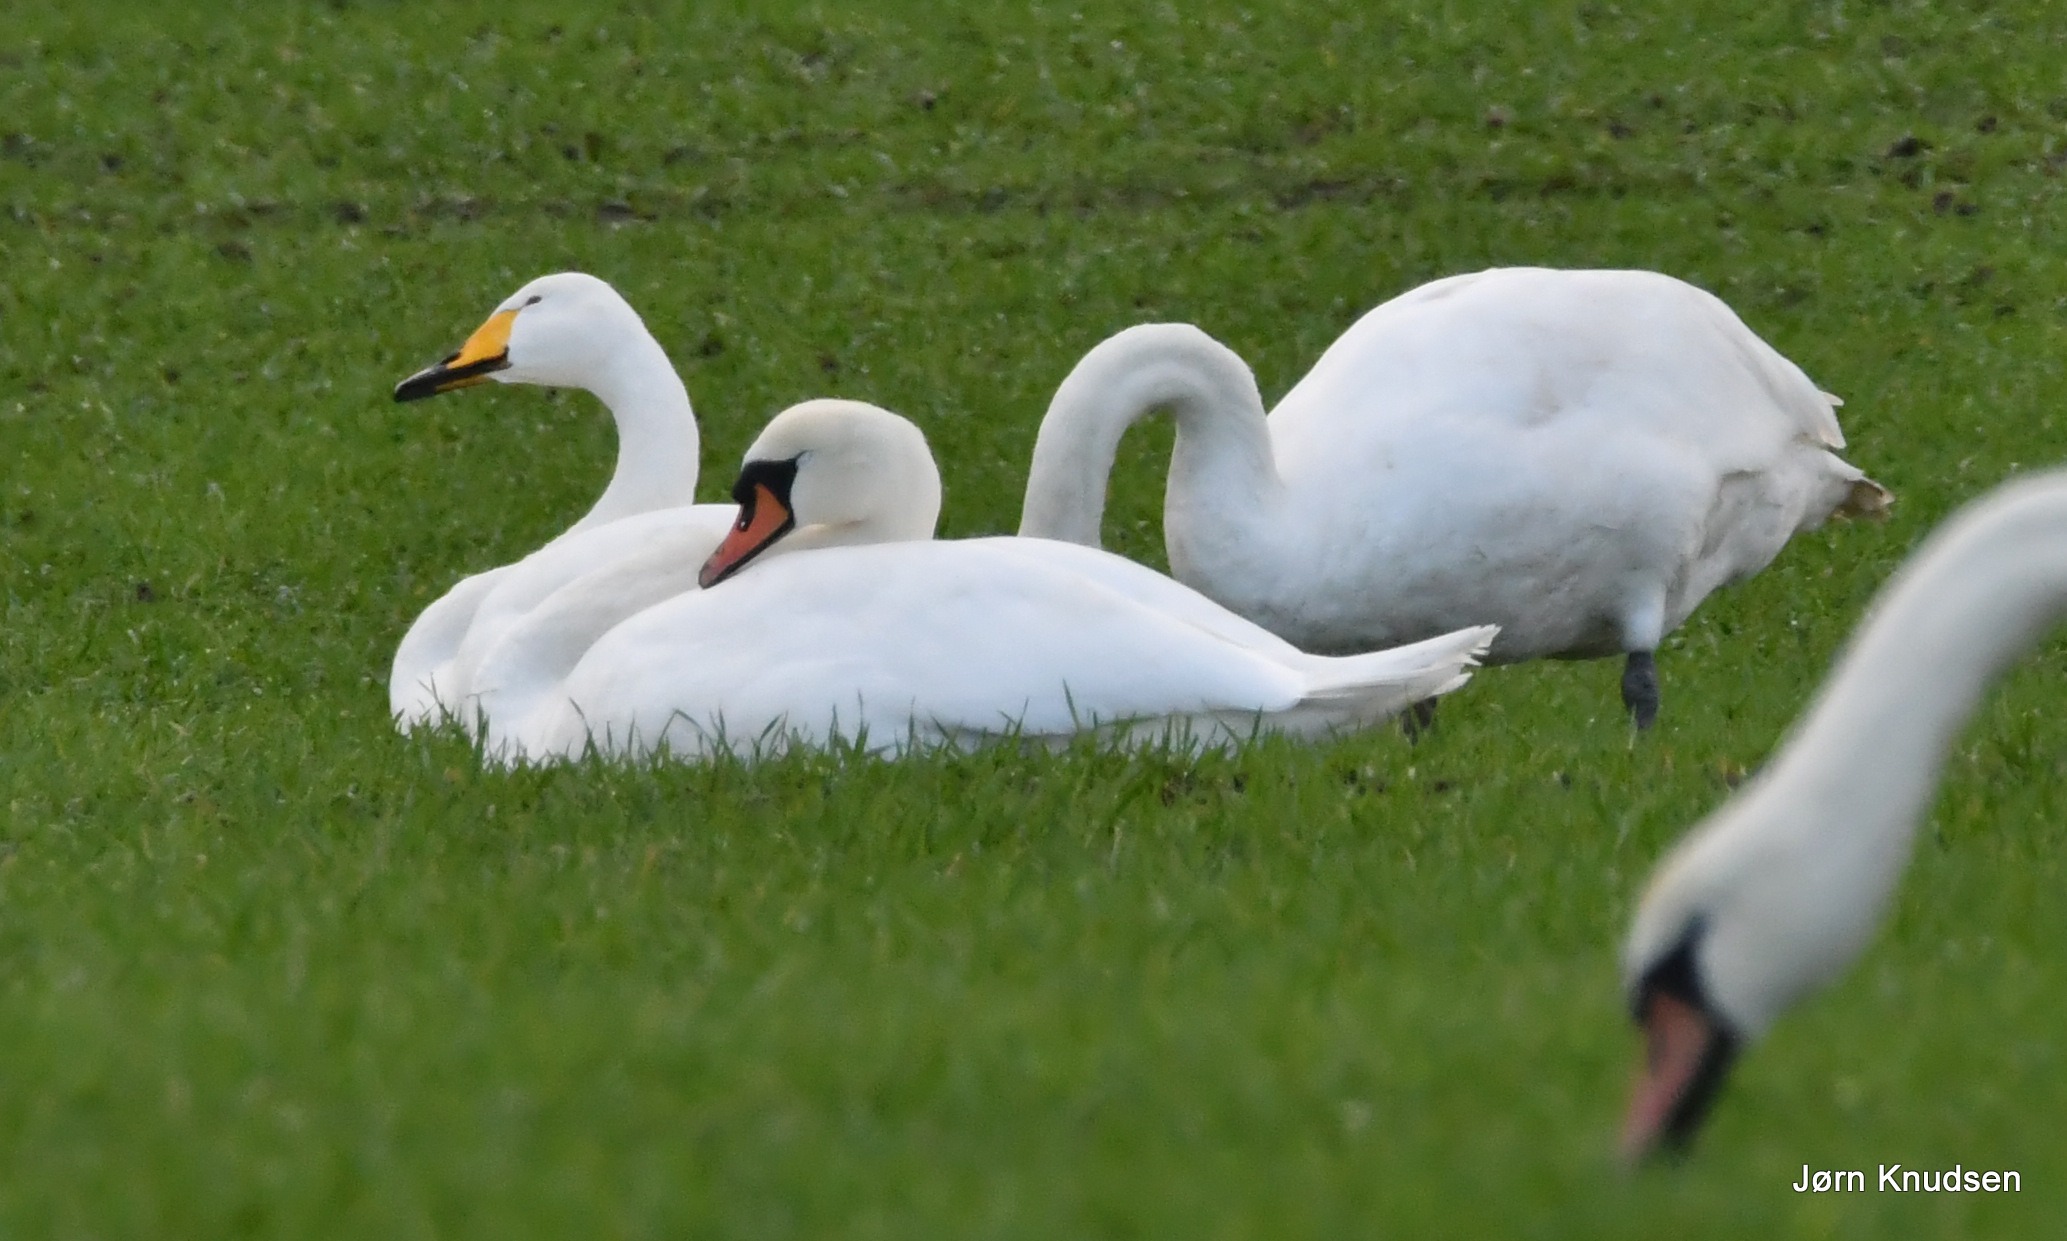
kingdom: Animalia
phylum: Chordata
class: Aves
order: Anseriformes
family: Anatidae
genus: Cygnus
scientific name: Cygnus cygnus
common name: Sangsvane
